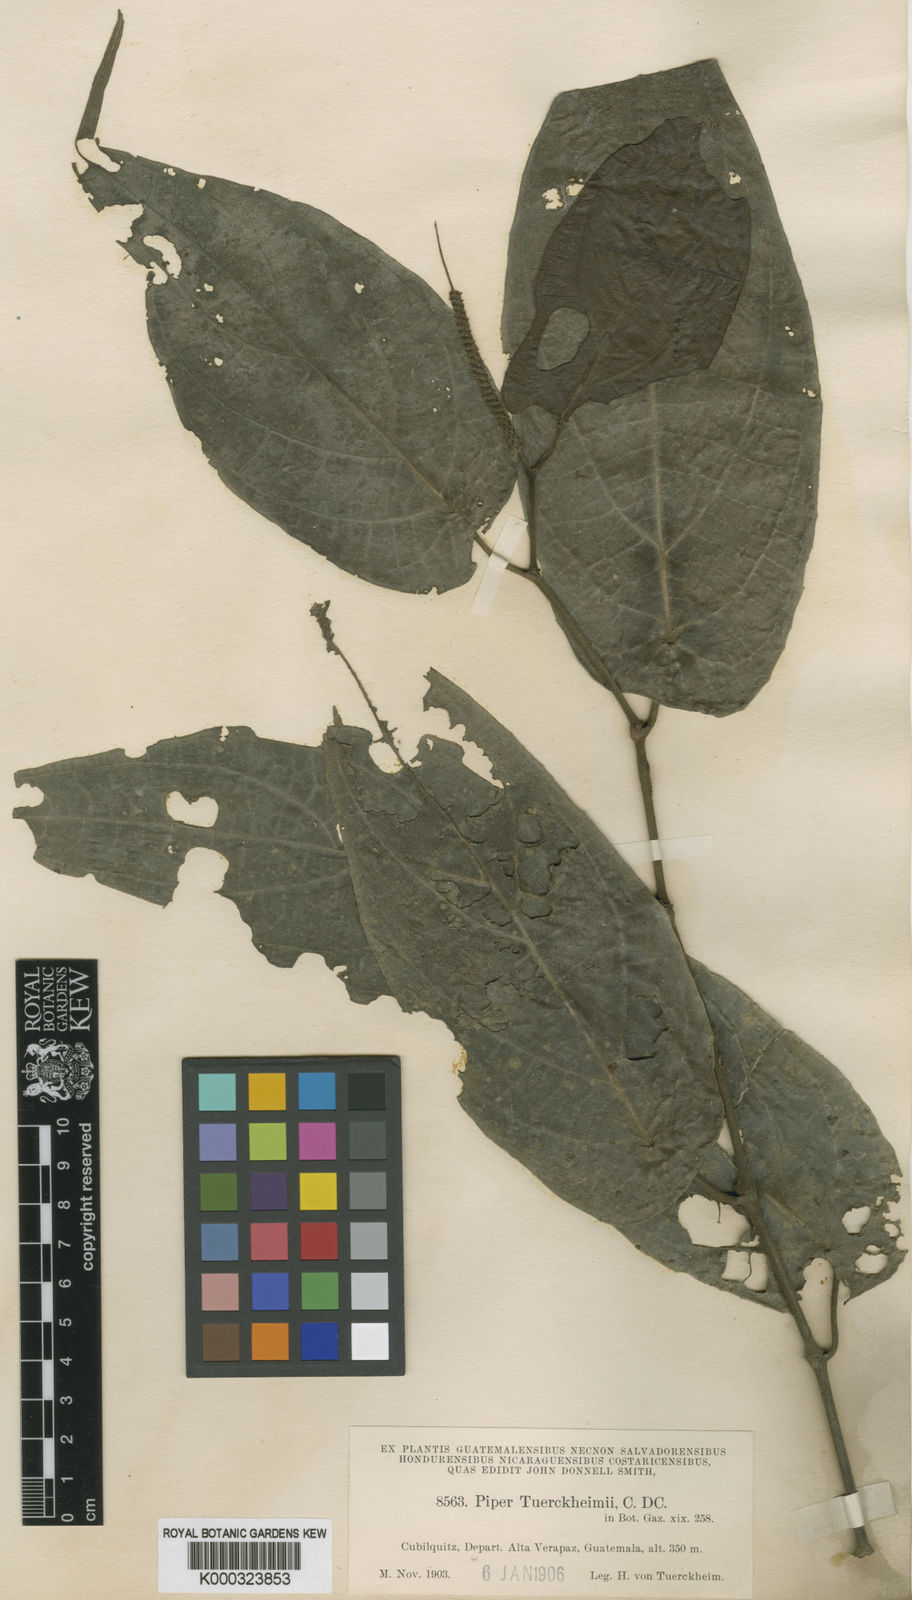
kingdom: Plantae
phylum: Tracheophyta
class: Magnoliopsida
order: Piperales
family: Piperaceae
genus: Piper
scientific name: Piper tuerckheimii
